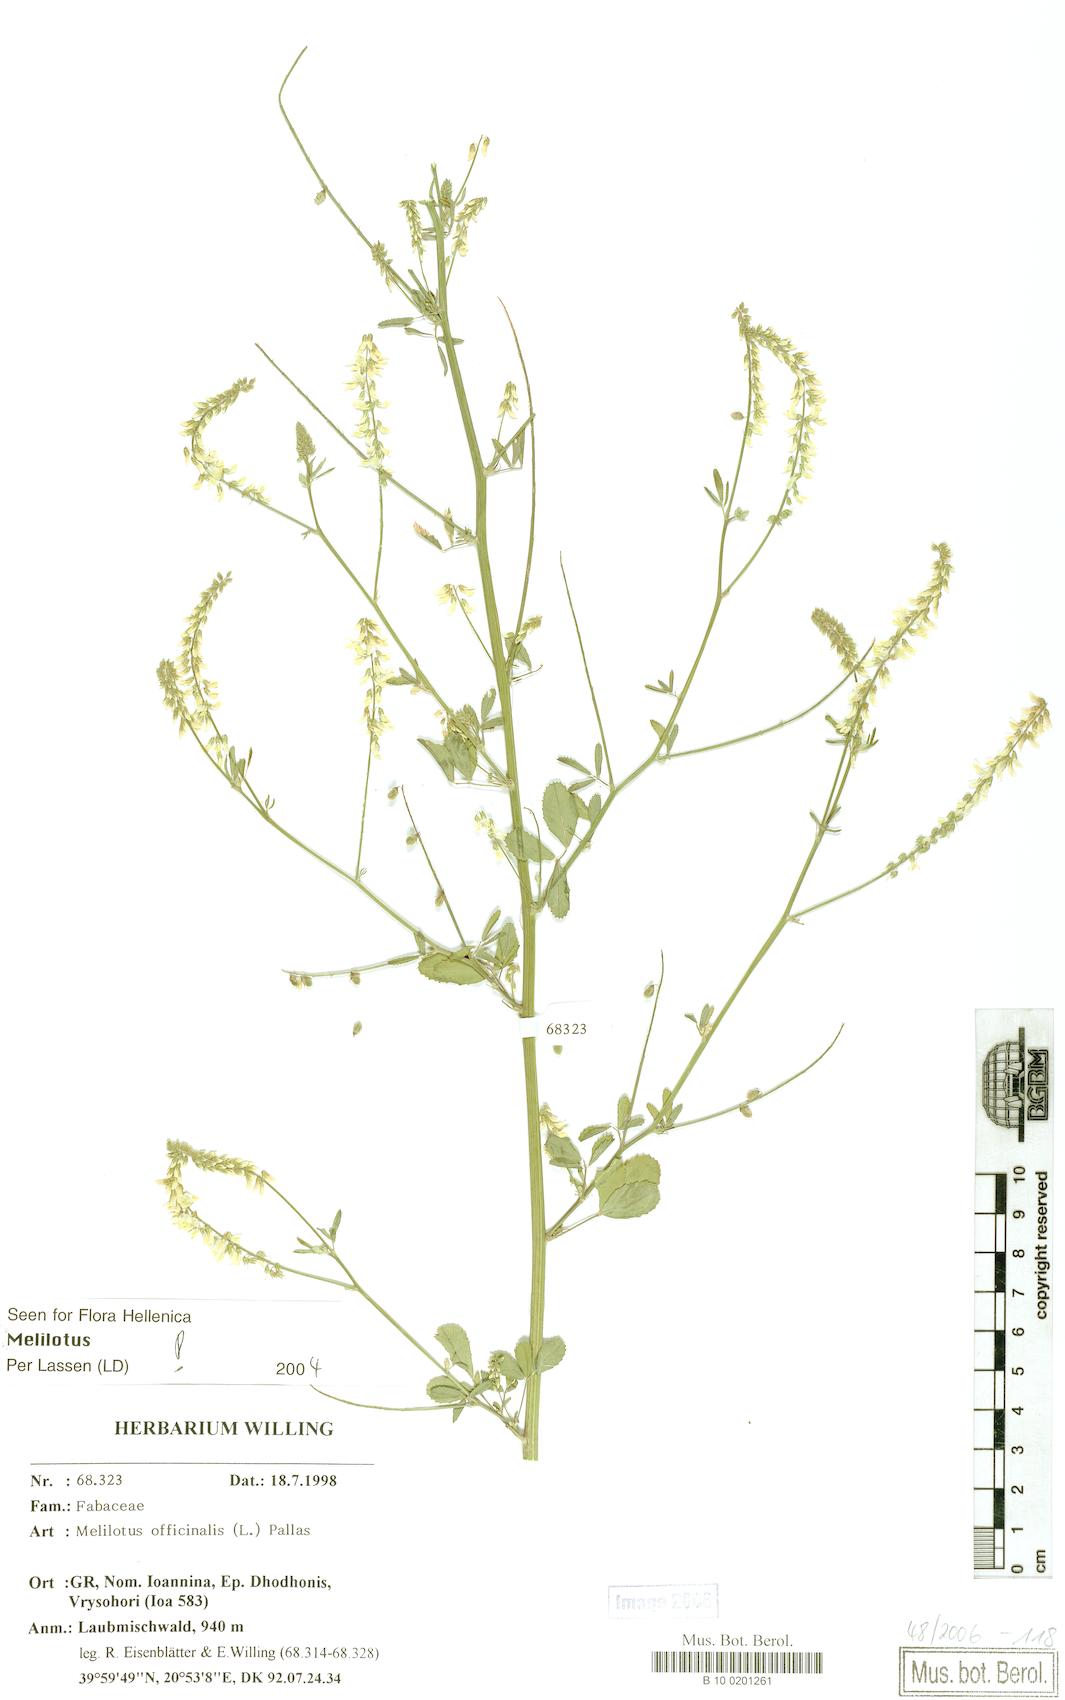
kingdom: Plantae
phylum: Tracheophyta
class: Magnoliopsida
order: Fabales
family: Fabaceae
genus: Melilotus
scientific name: Melilotus officinalis
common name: Sweetclover
